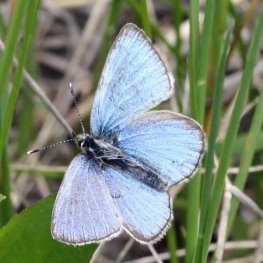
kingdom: Animalia
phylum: Arthropoda
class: Insecta
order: Lepidoptera
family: Lycaenidae
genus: Glaucopsyche
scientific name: Glaucopsyche lygdamus
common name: Silvery Blue
